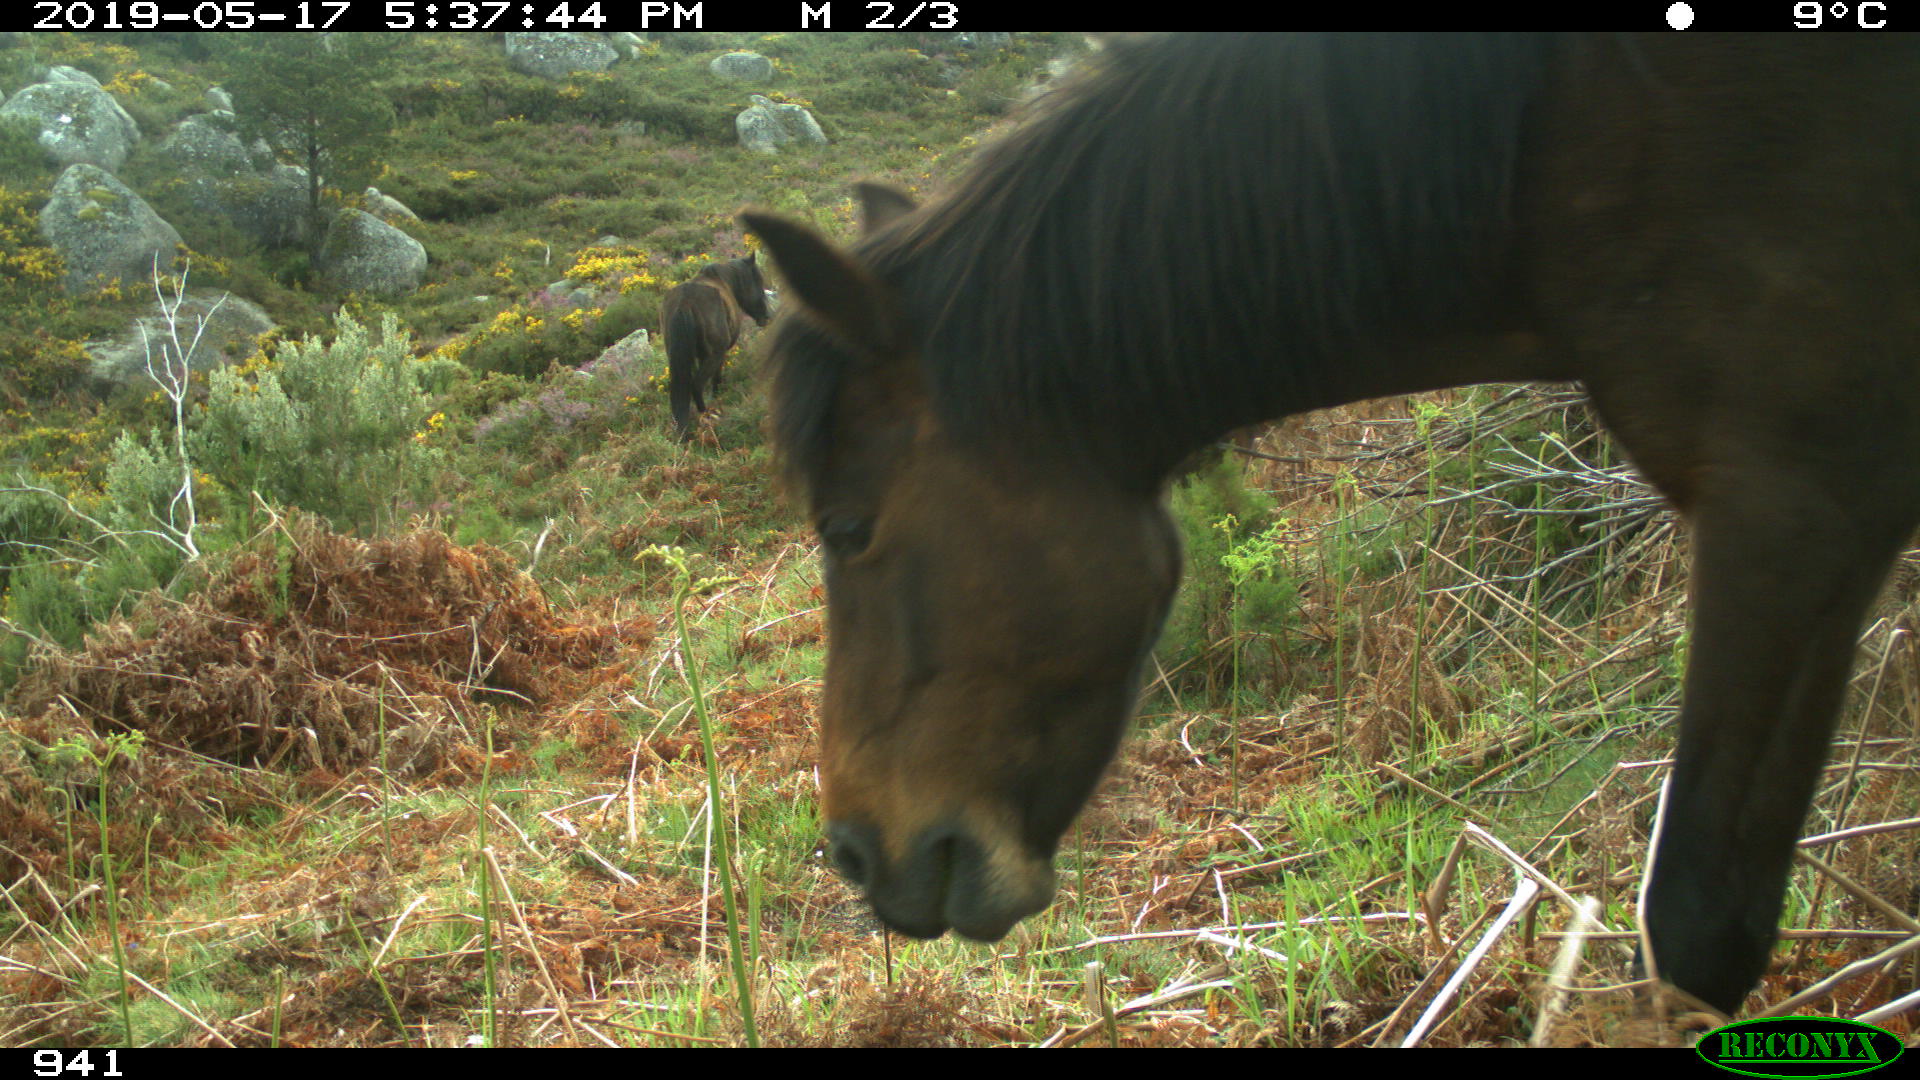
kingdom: Animalia
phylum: Chordata
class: Mammalia
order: Perissodactyla
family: Equidae
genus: Equus
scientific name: Equus caballus
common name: Horse
